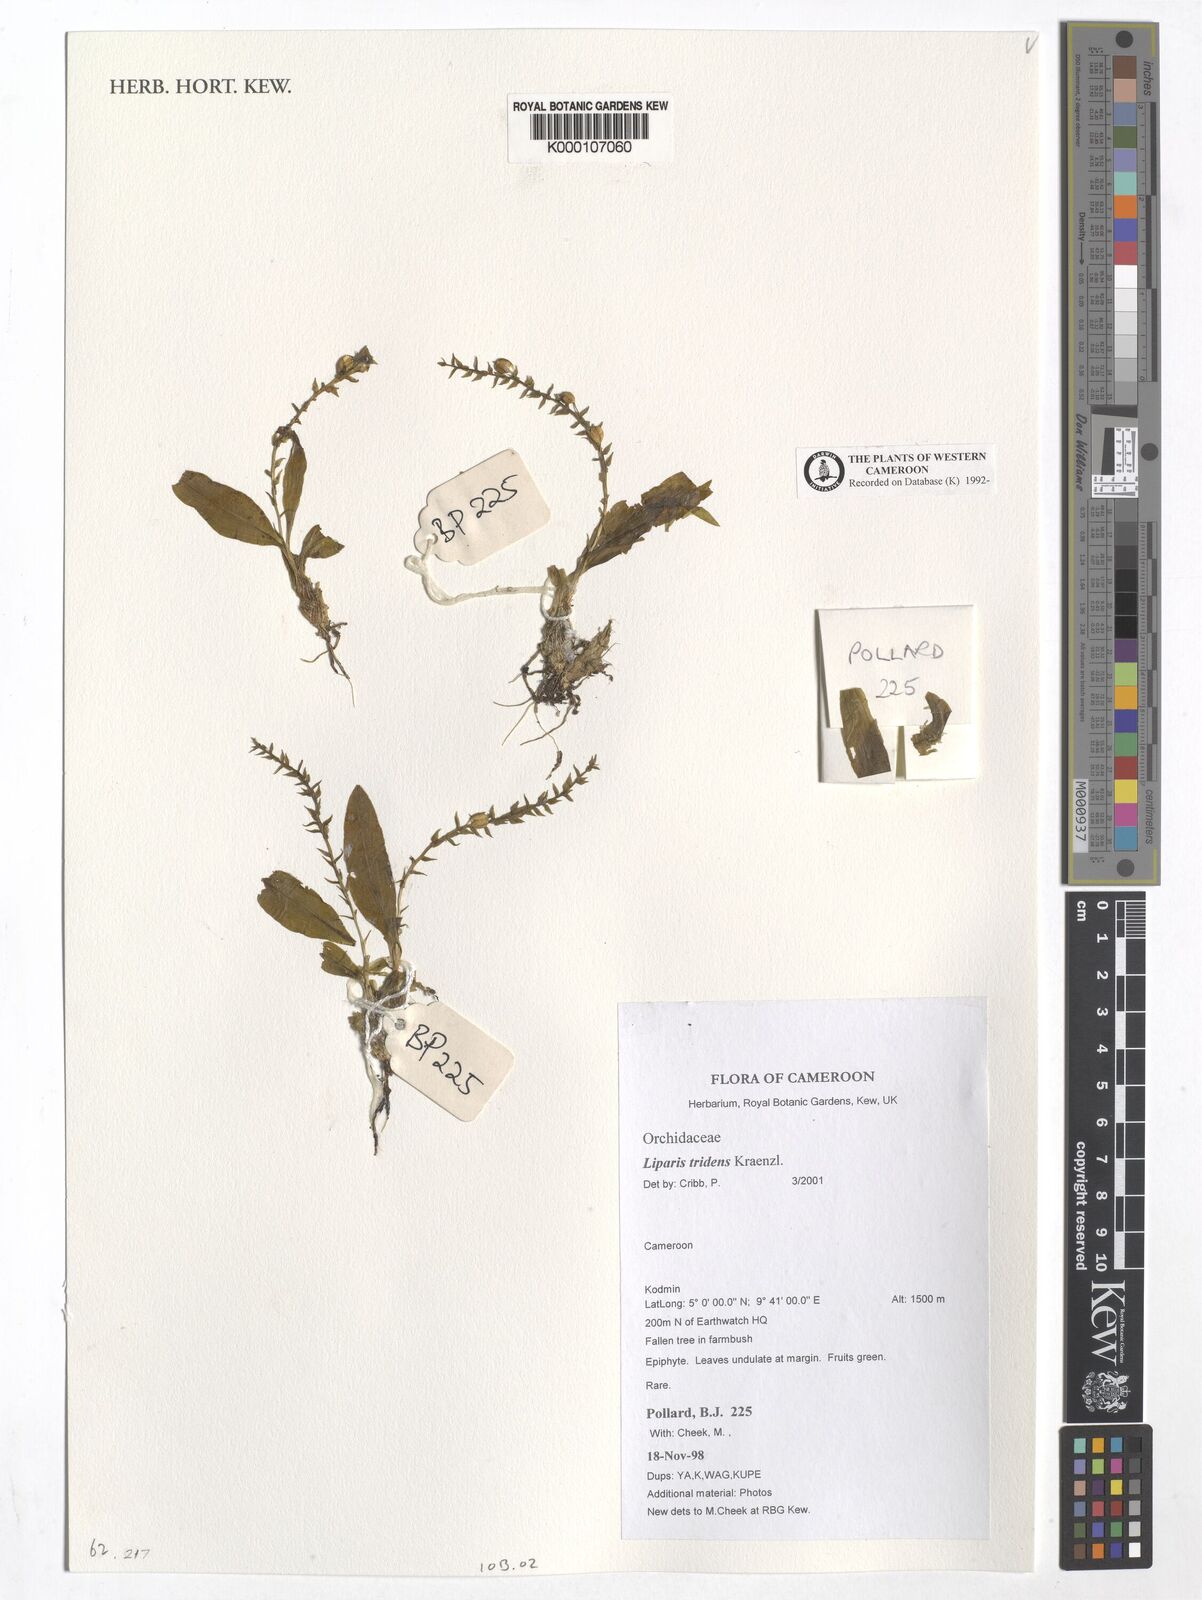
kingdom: Plantae
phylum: Tracheophyta
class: Liliopsida
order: Asparagales
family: Orchidaceae
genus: Liparis
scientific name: Liparis tridens
